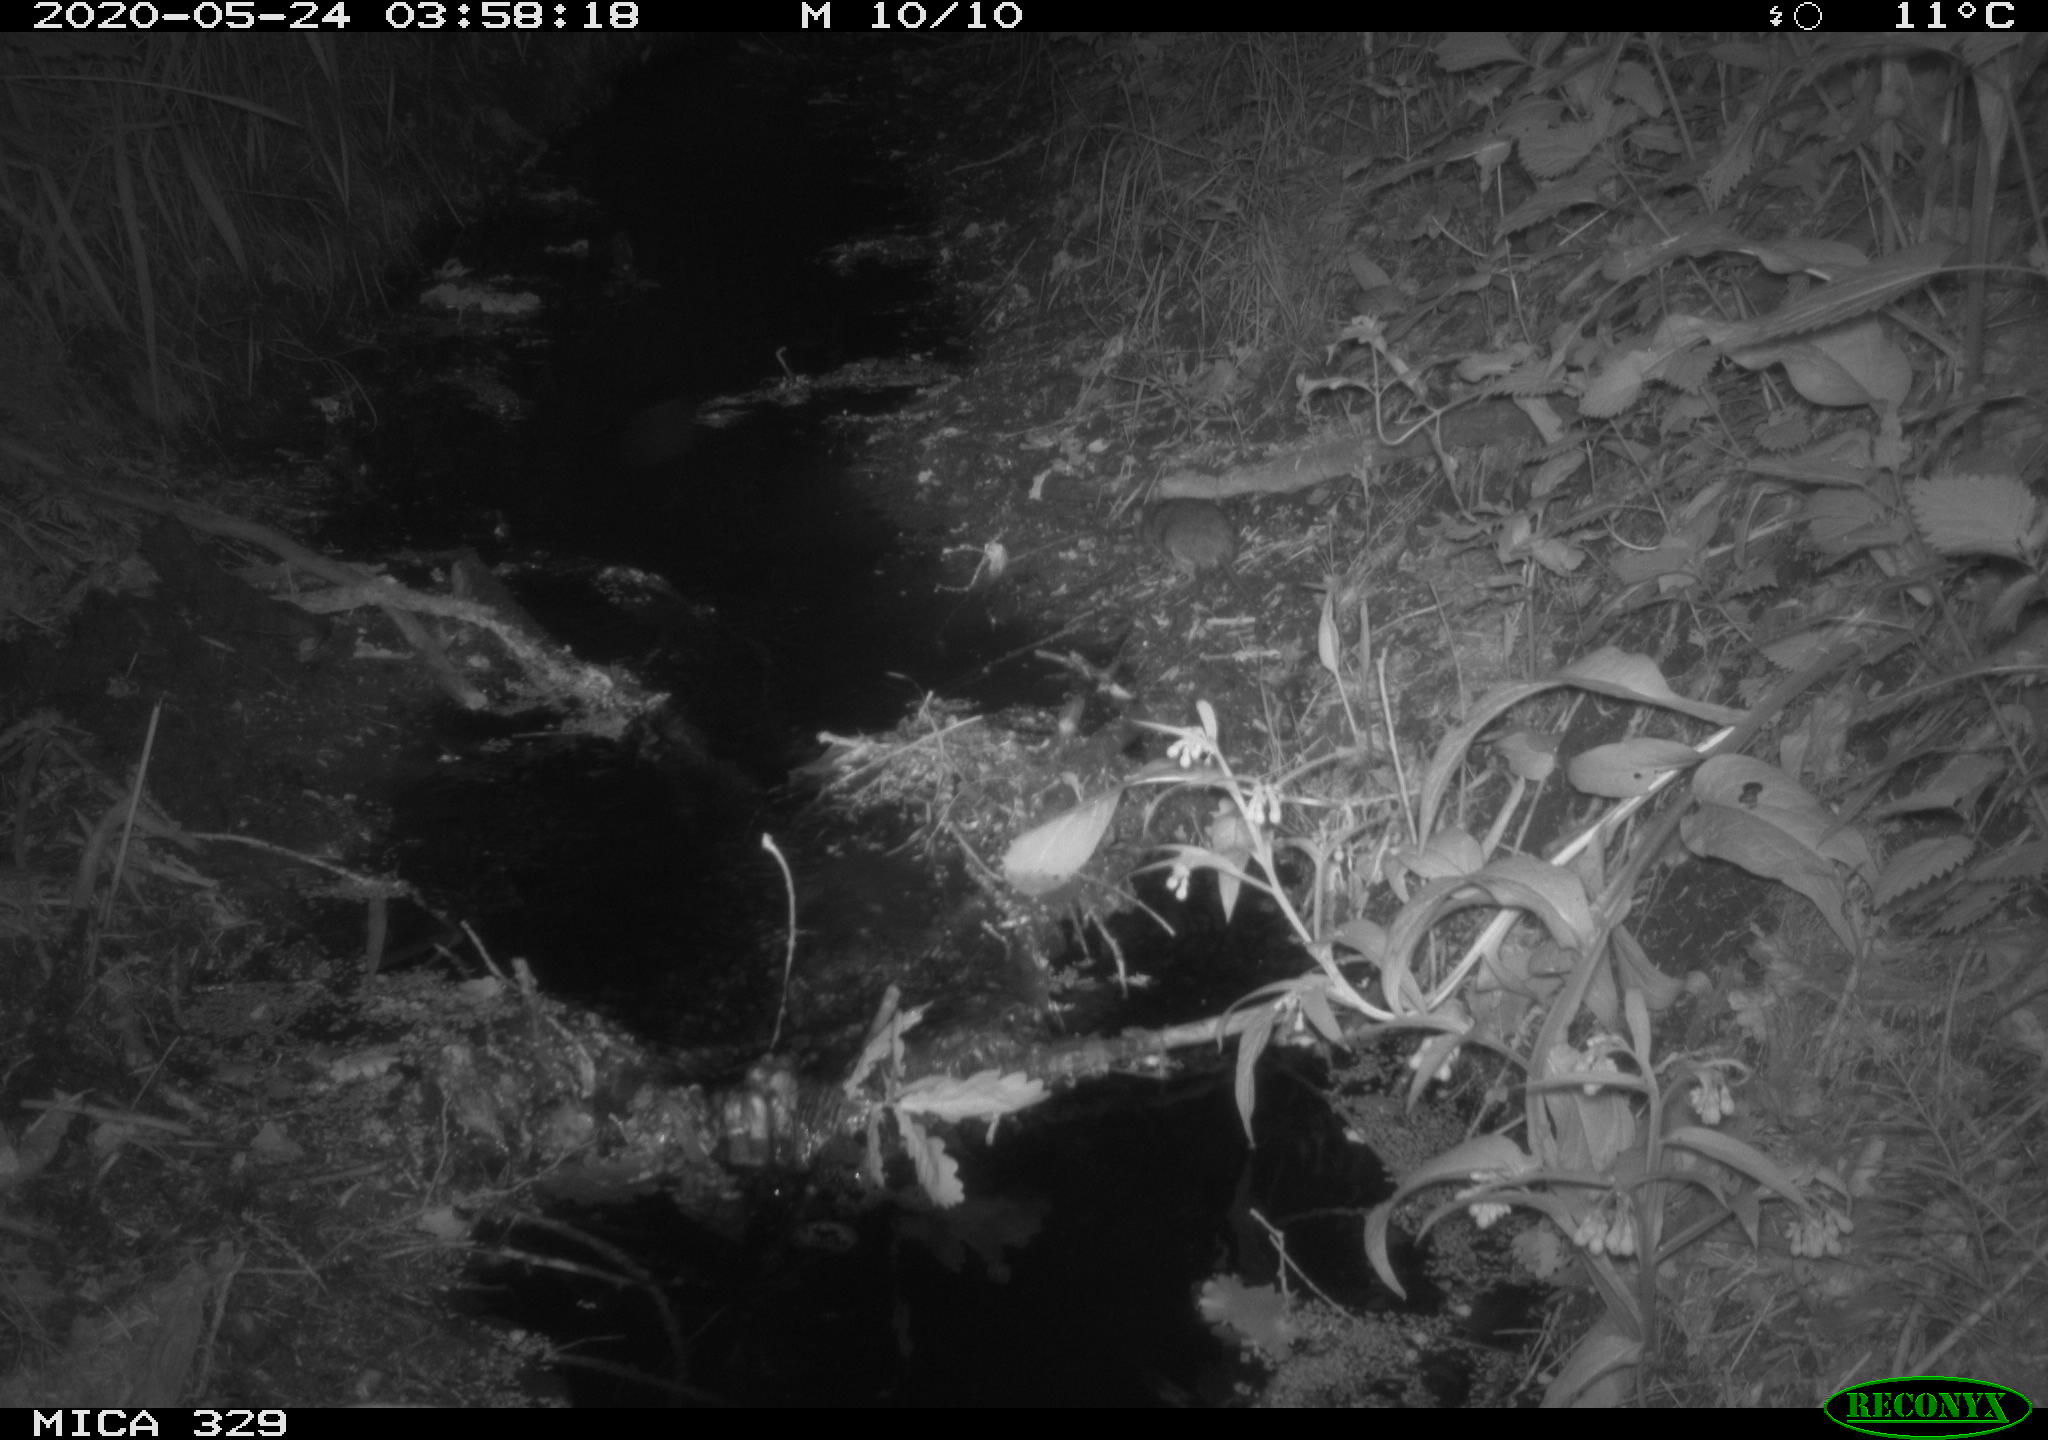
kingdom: Animalia
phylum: Chordata
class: Mammalia
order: Rodentia
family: Muridae
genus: Rattus
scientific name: Rattus norvegicus
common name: Brown rat
